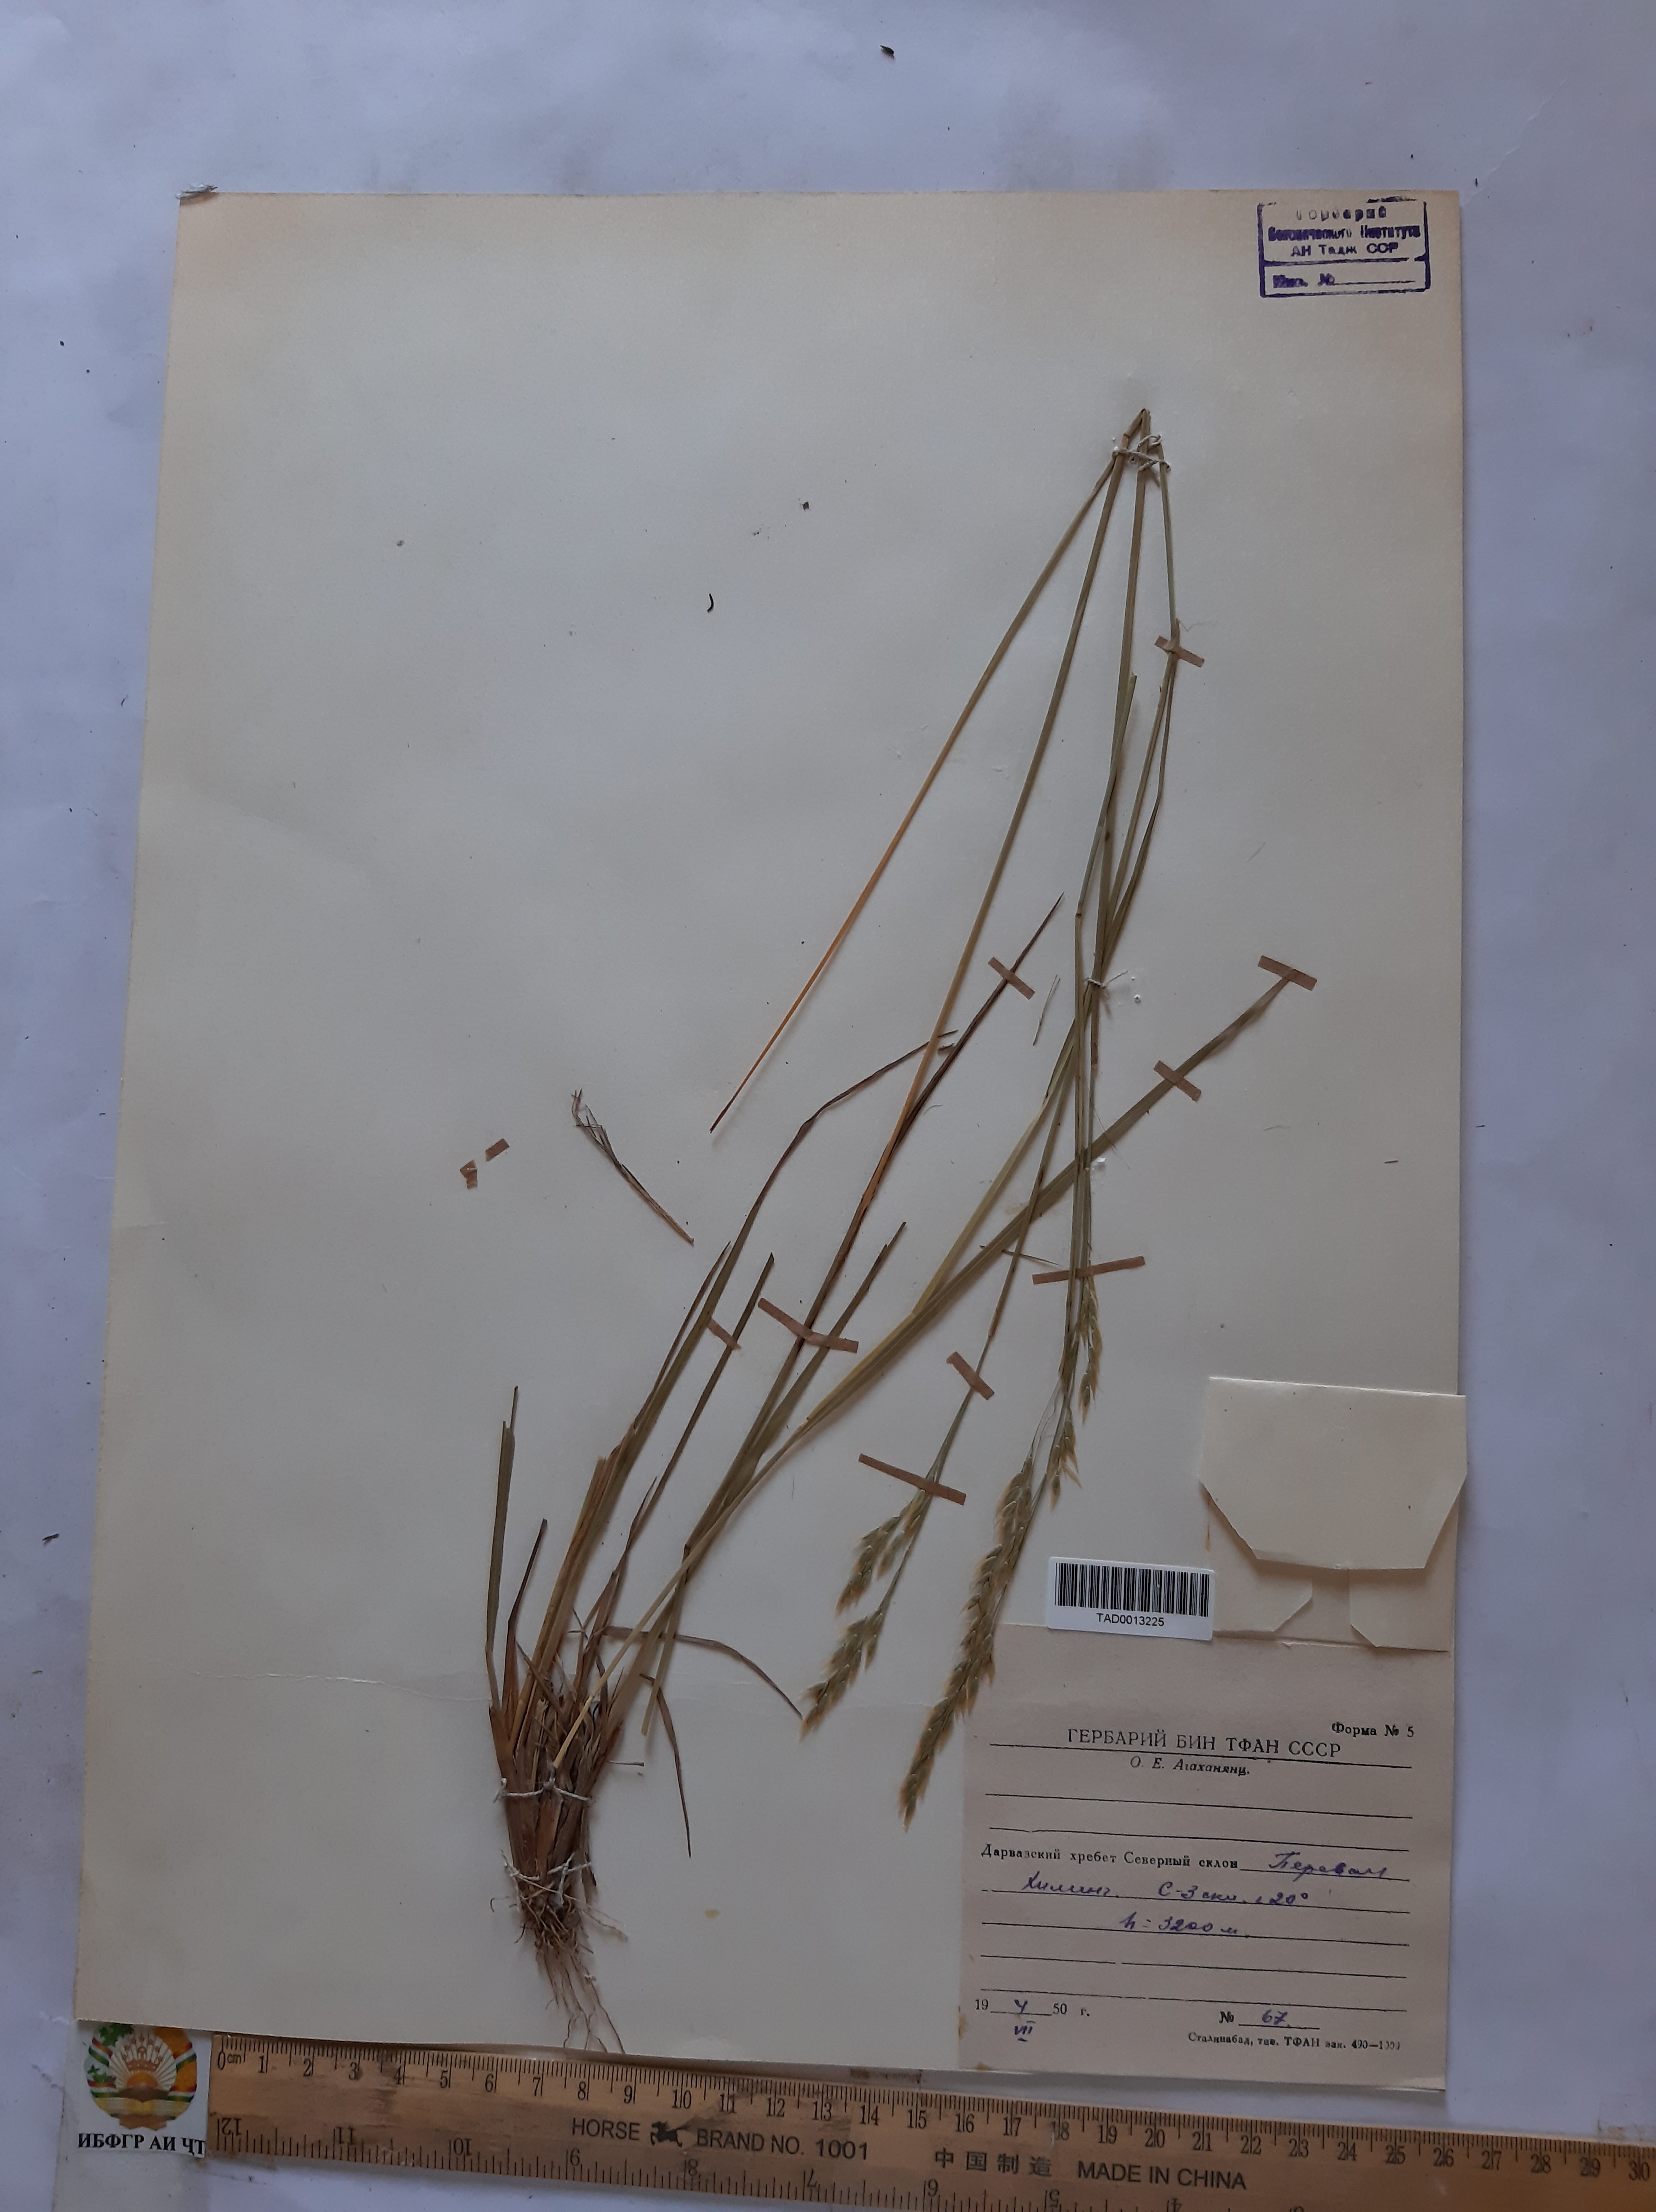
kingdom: Plantae
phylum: Tracheophyta
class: Liliopsida
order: Poales
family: Poaceae
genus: Piptatherum
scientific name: Piptatherum ferganense
